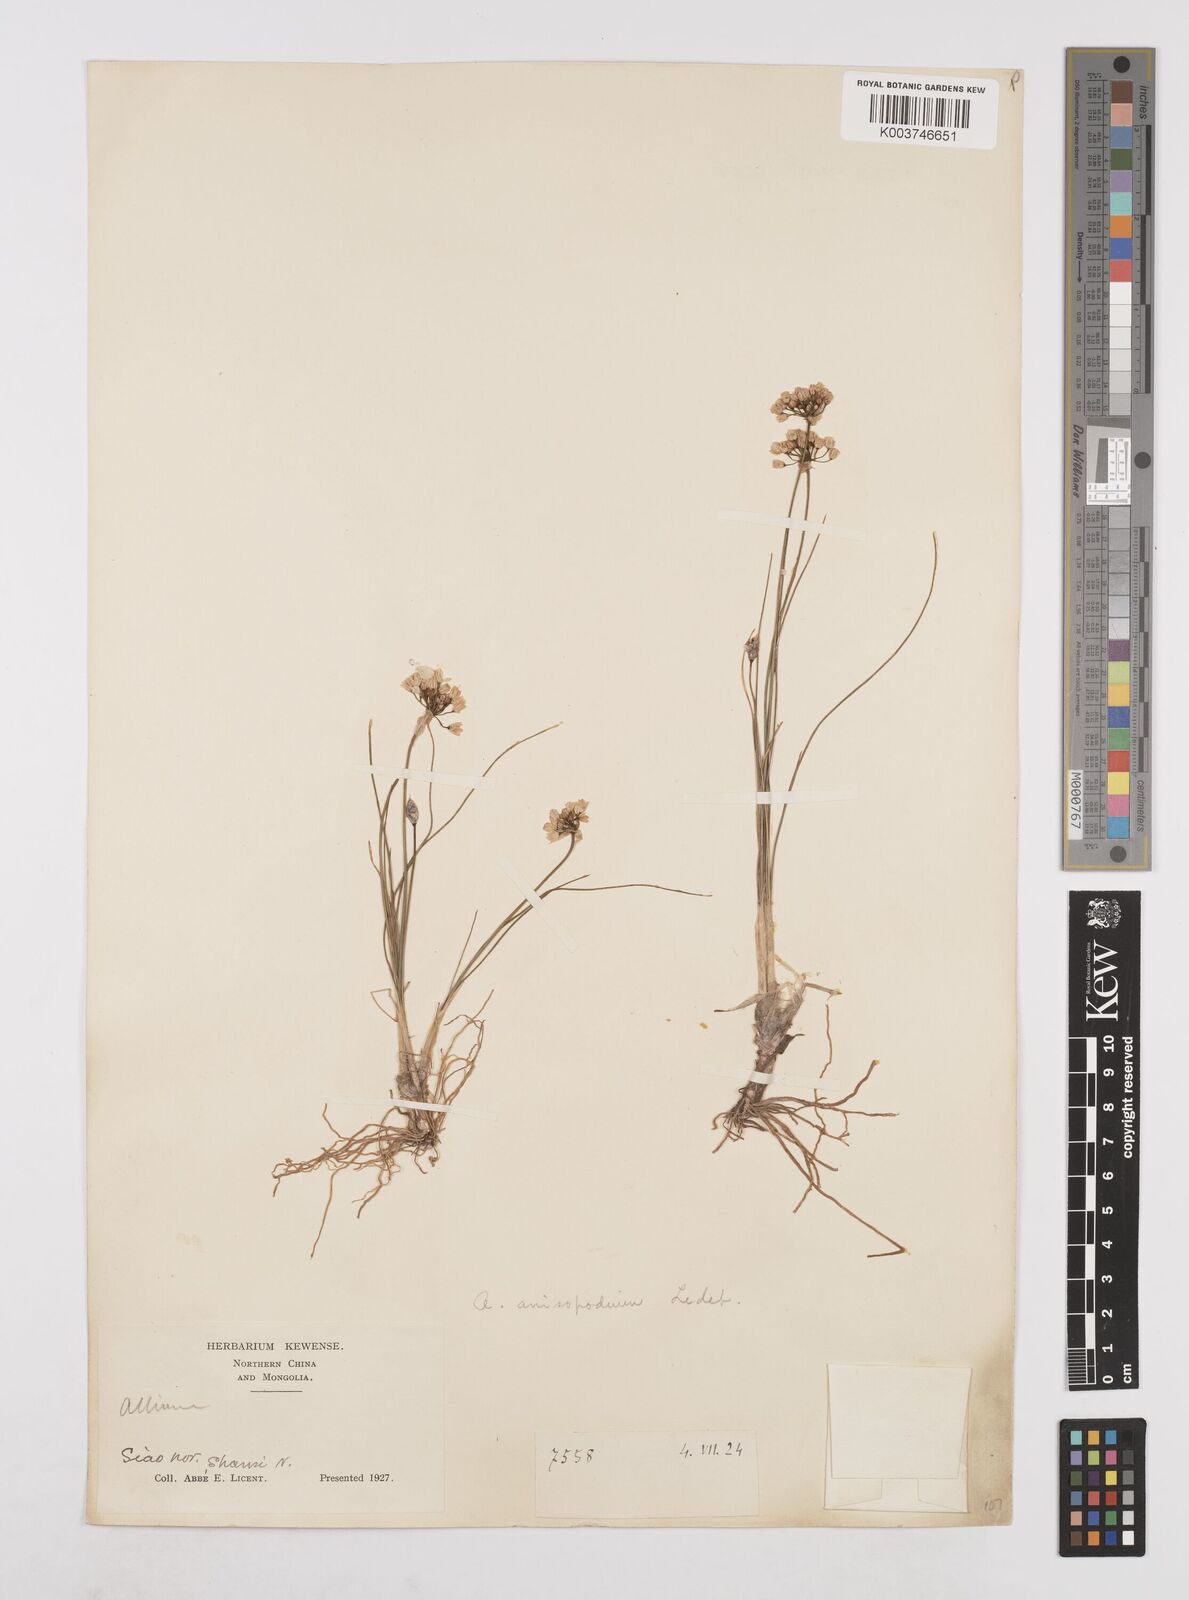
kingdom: Plantae
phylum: Tracheophyta
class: Liliopsida
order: Asparagales
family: Amaryllidaceae
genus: Allium
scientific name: Allium anisopodium
